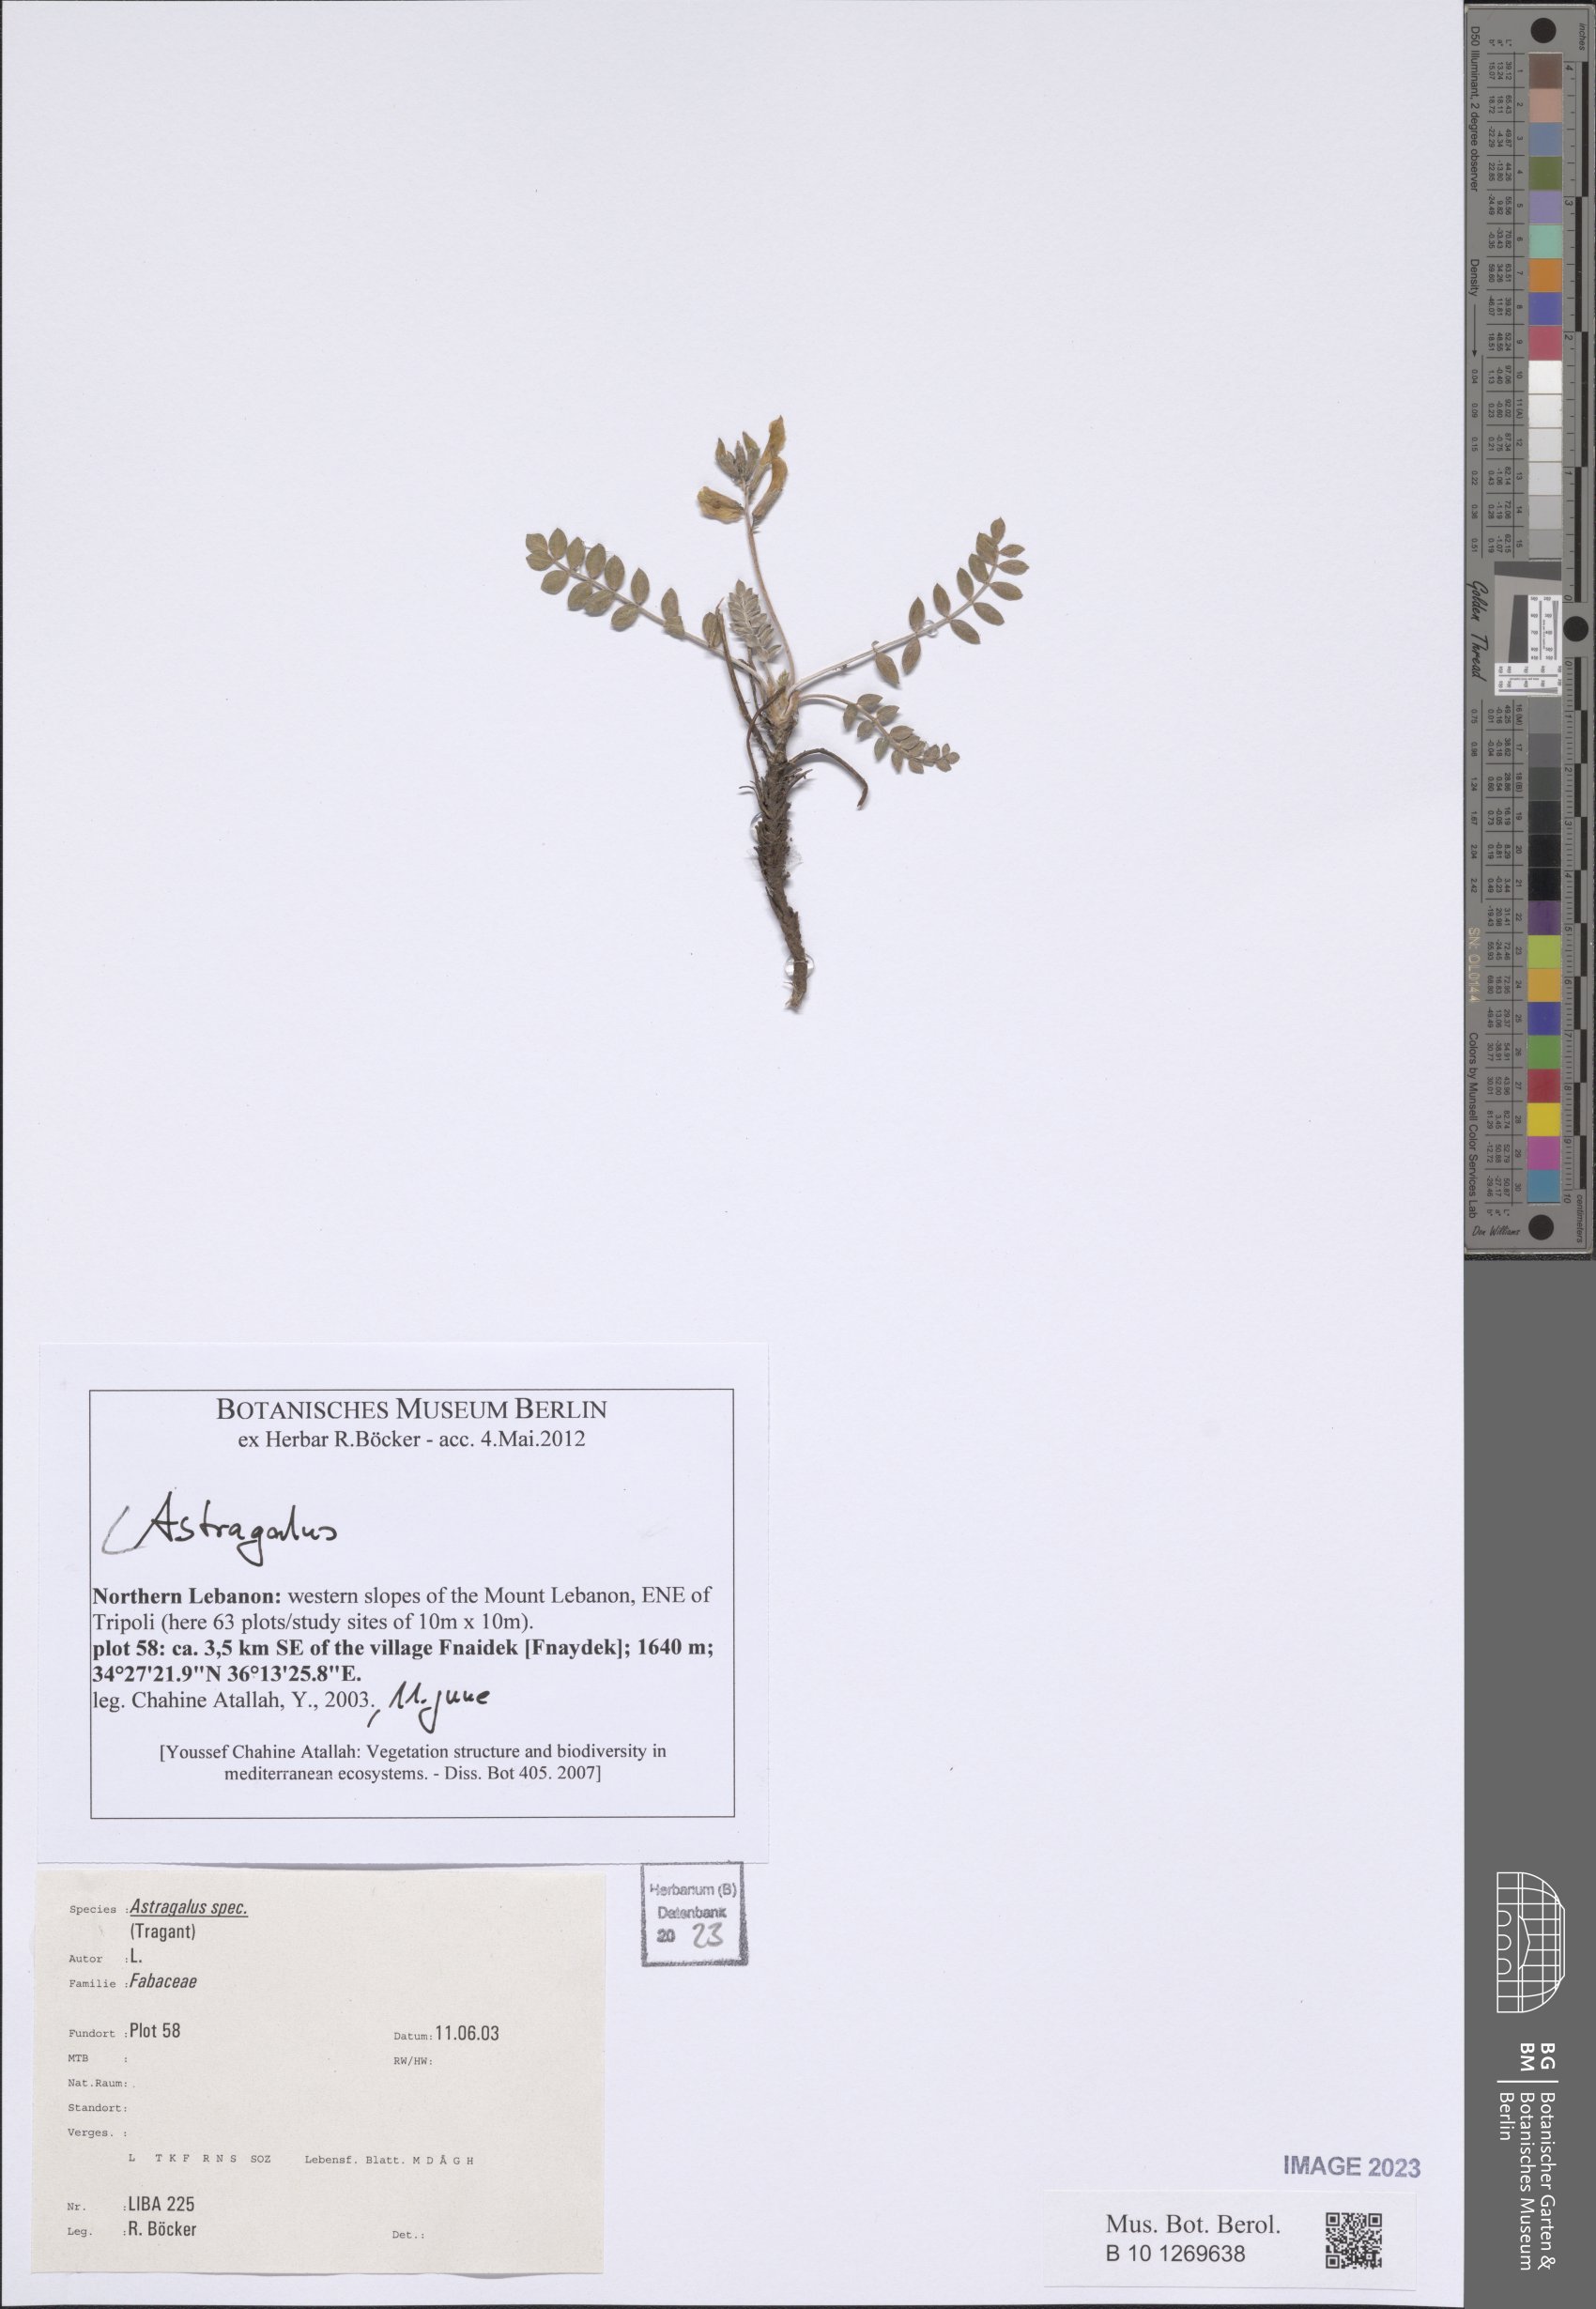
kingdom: Plantae
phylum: Tracheophyta
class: Magnoliopsida
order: Fabales
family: Fabaceae
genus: Astragalus
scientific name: Astragalus
